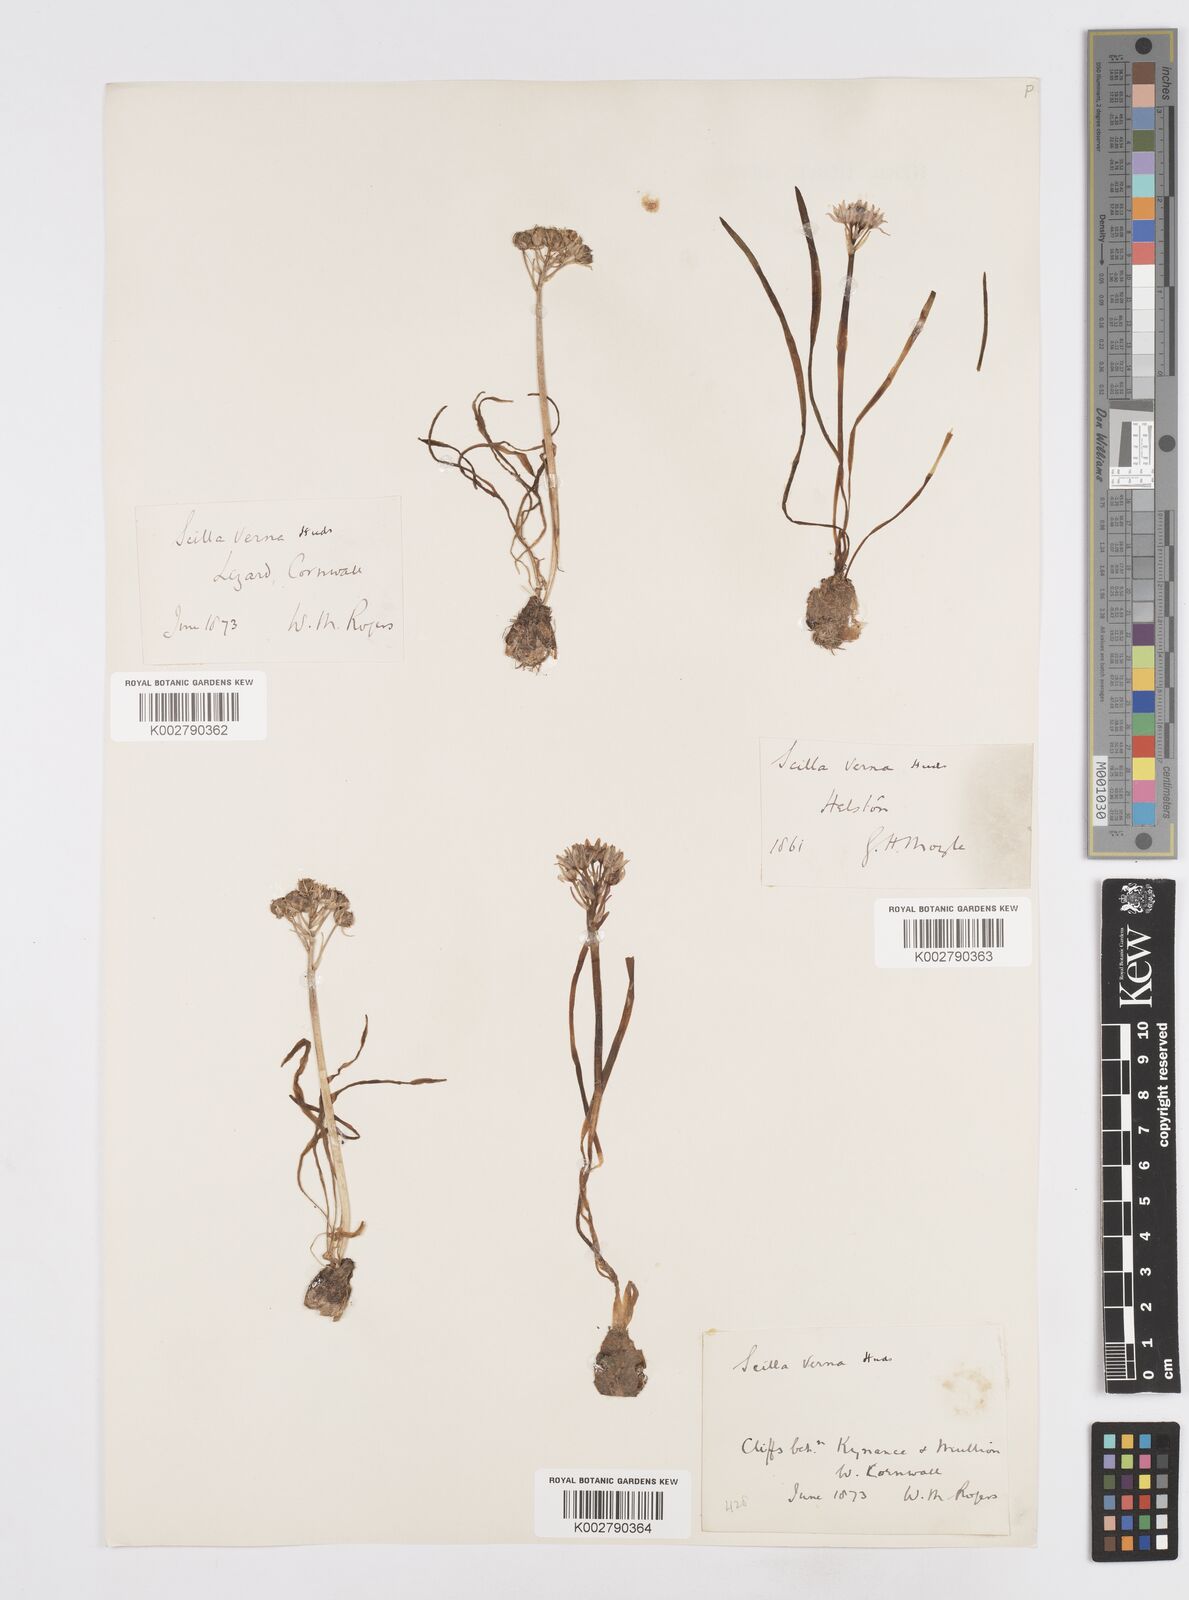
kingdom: Plantae
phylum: Tracheophyta
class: Liliopsida
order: Asparagales
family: Asparagaceae
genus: Scilla
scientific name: Scilla verna
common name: Spring squill
